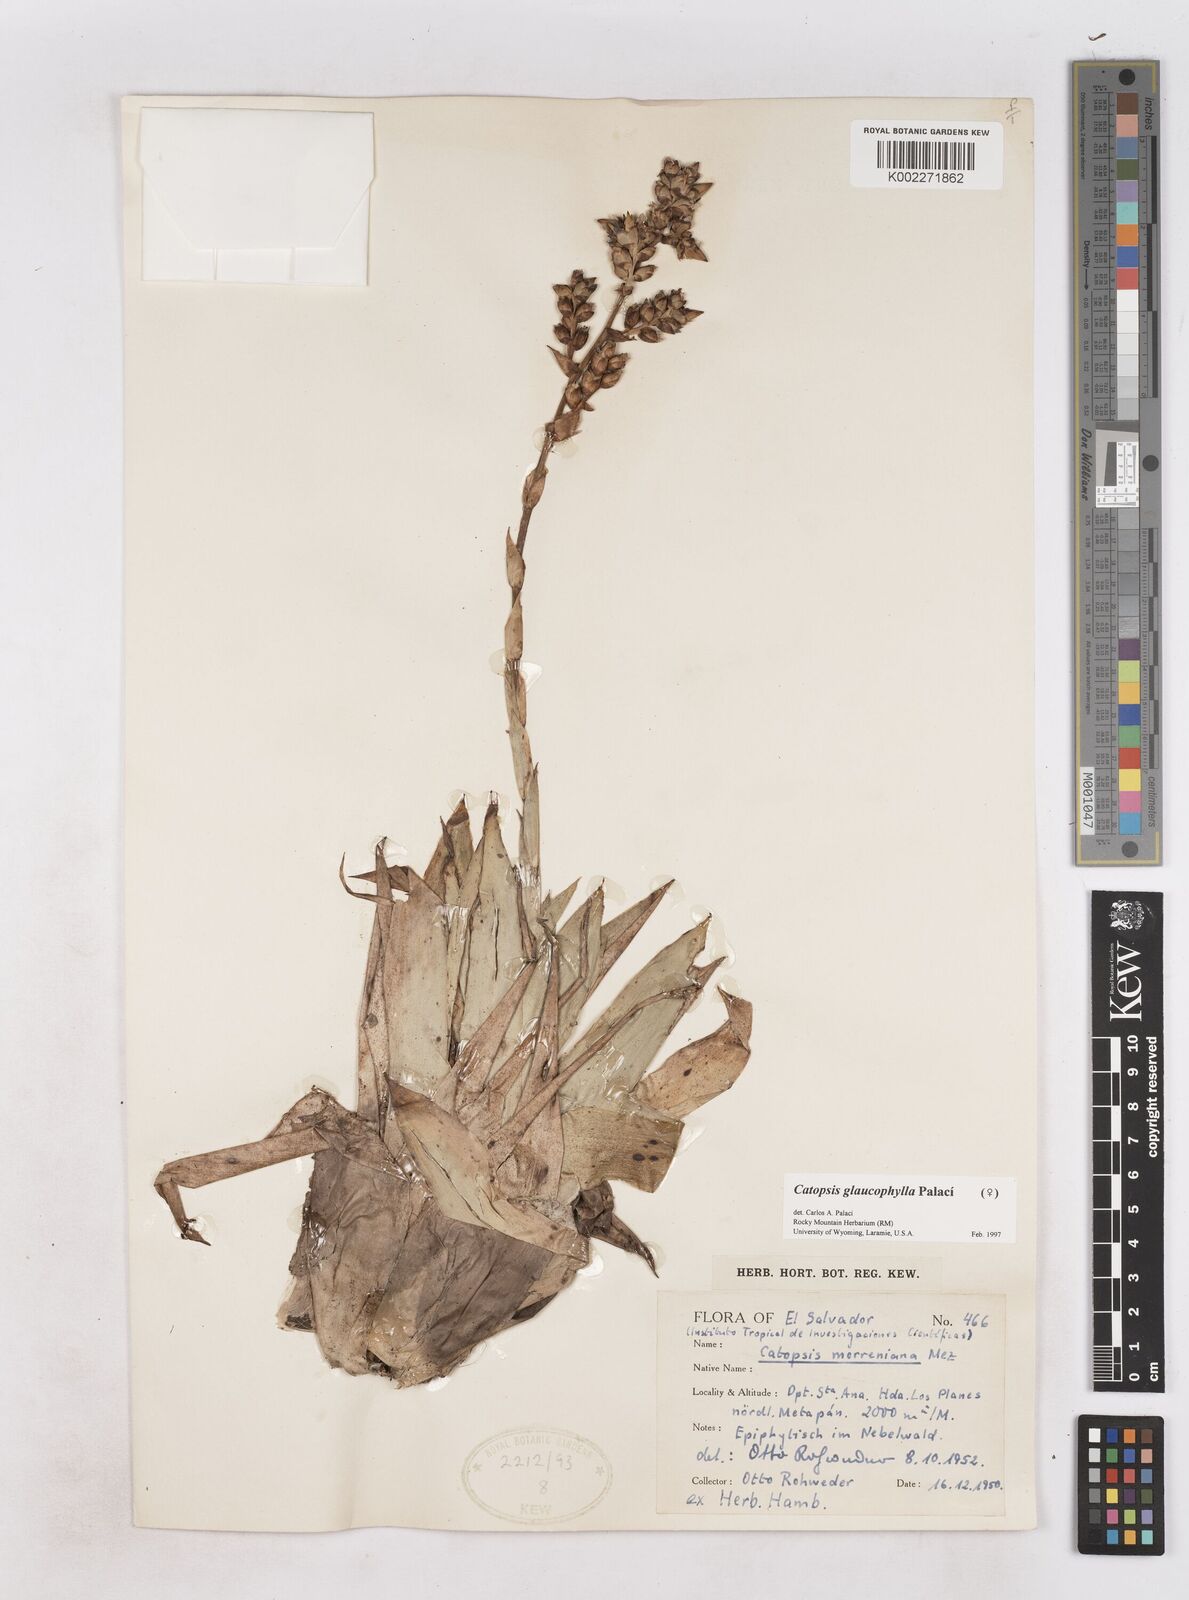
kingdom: Plantae
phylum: Tracheophyta
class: Liliopsida
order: Poales
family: Bromeliaceae
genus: Catopsis
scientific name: Catopsis
